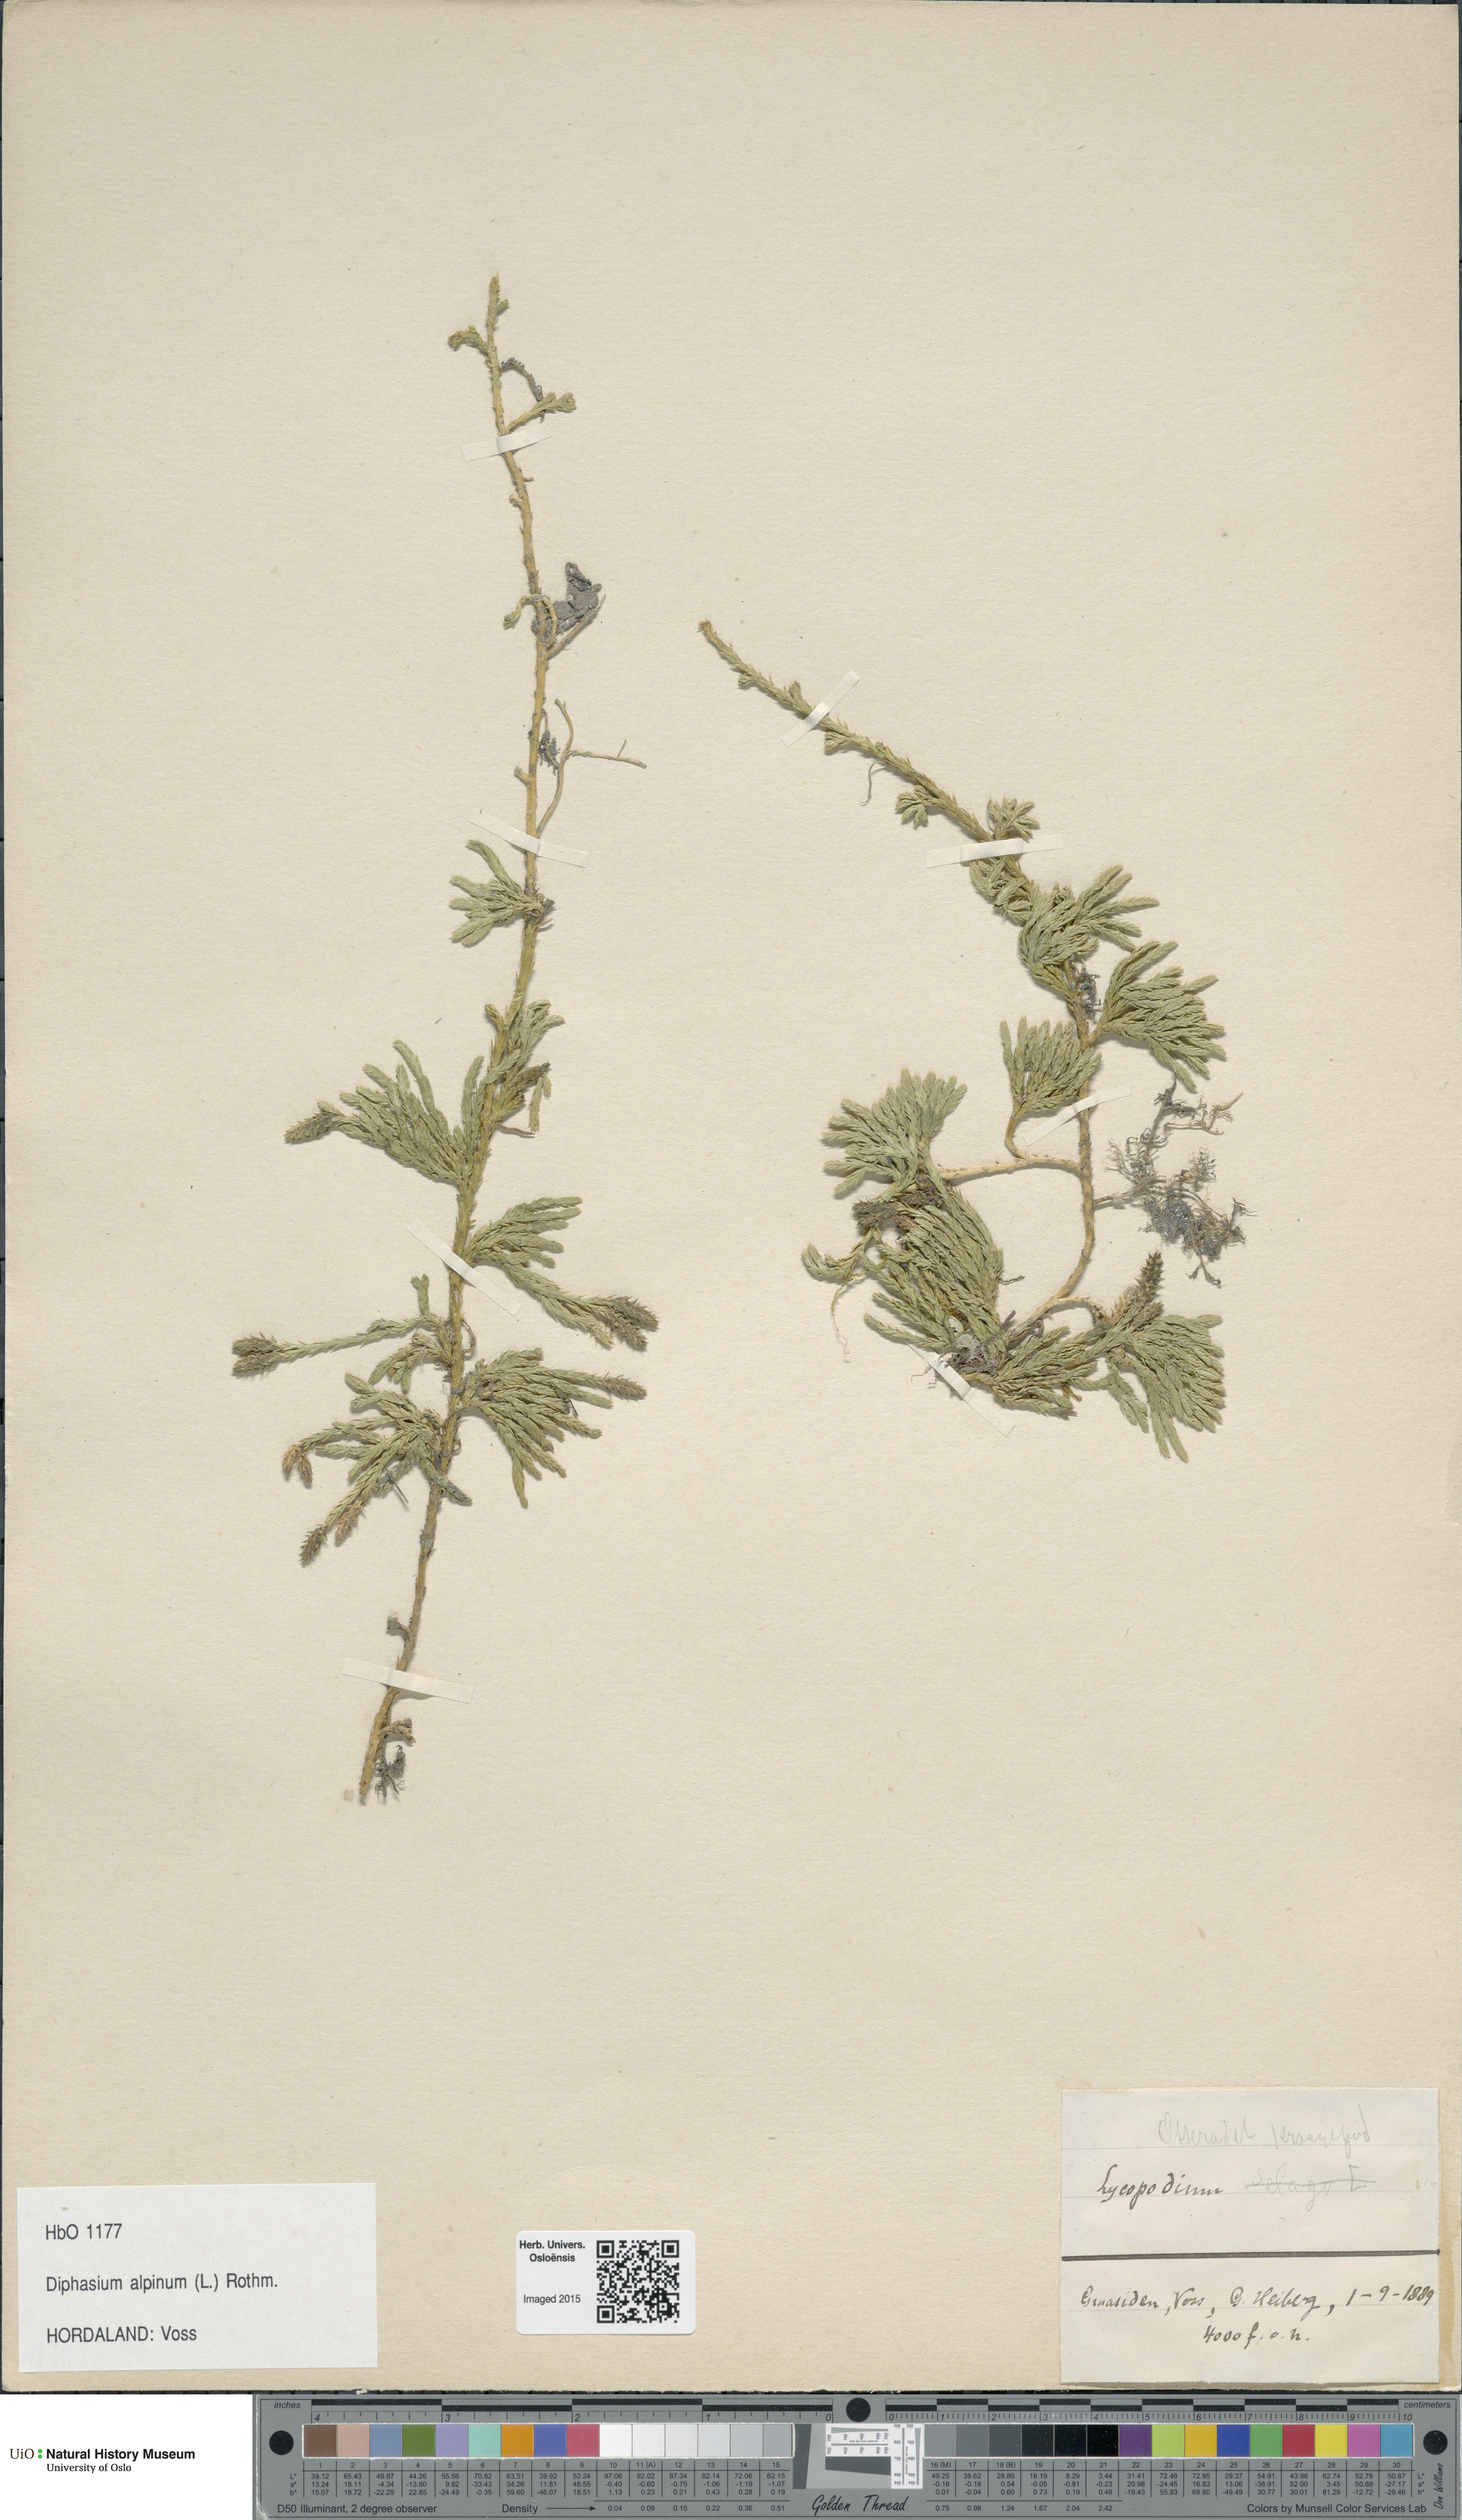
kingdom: Plantae
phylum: Tracheophyta
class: Lycopodiopsida
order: Lycopodiales
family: Lycopodiaceae
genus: Diphasiastrum
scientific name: Diphasiastrum alpinum
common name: Alpine clubmoss
